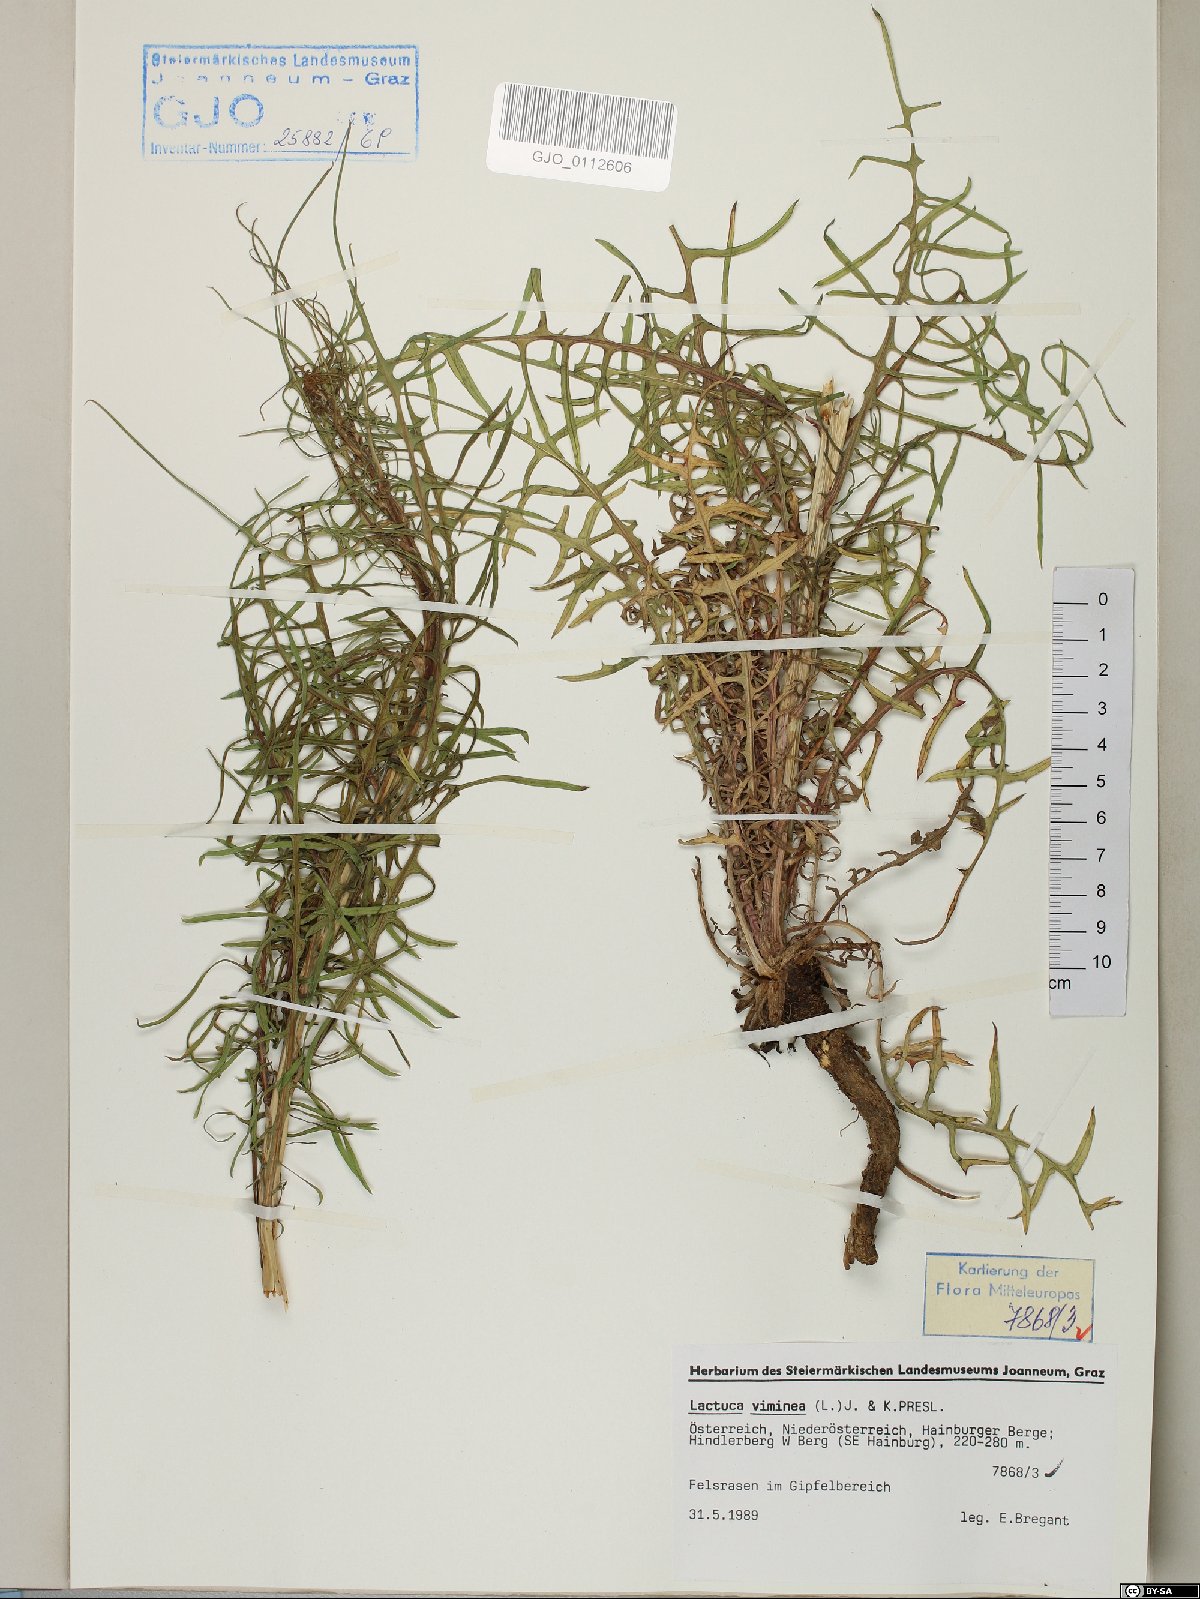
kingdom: Plantae
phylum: Tracheophyta
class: Magnoliopsida
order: Asterales
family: Asteraceae
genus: Lactuca
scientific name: Lactuca viminea
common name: Pliant lettuce
